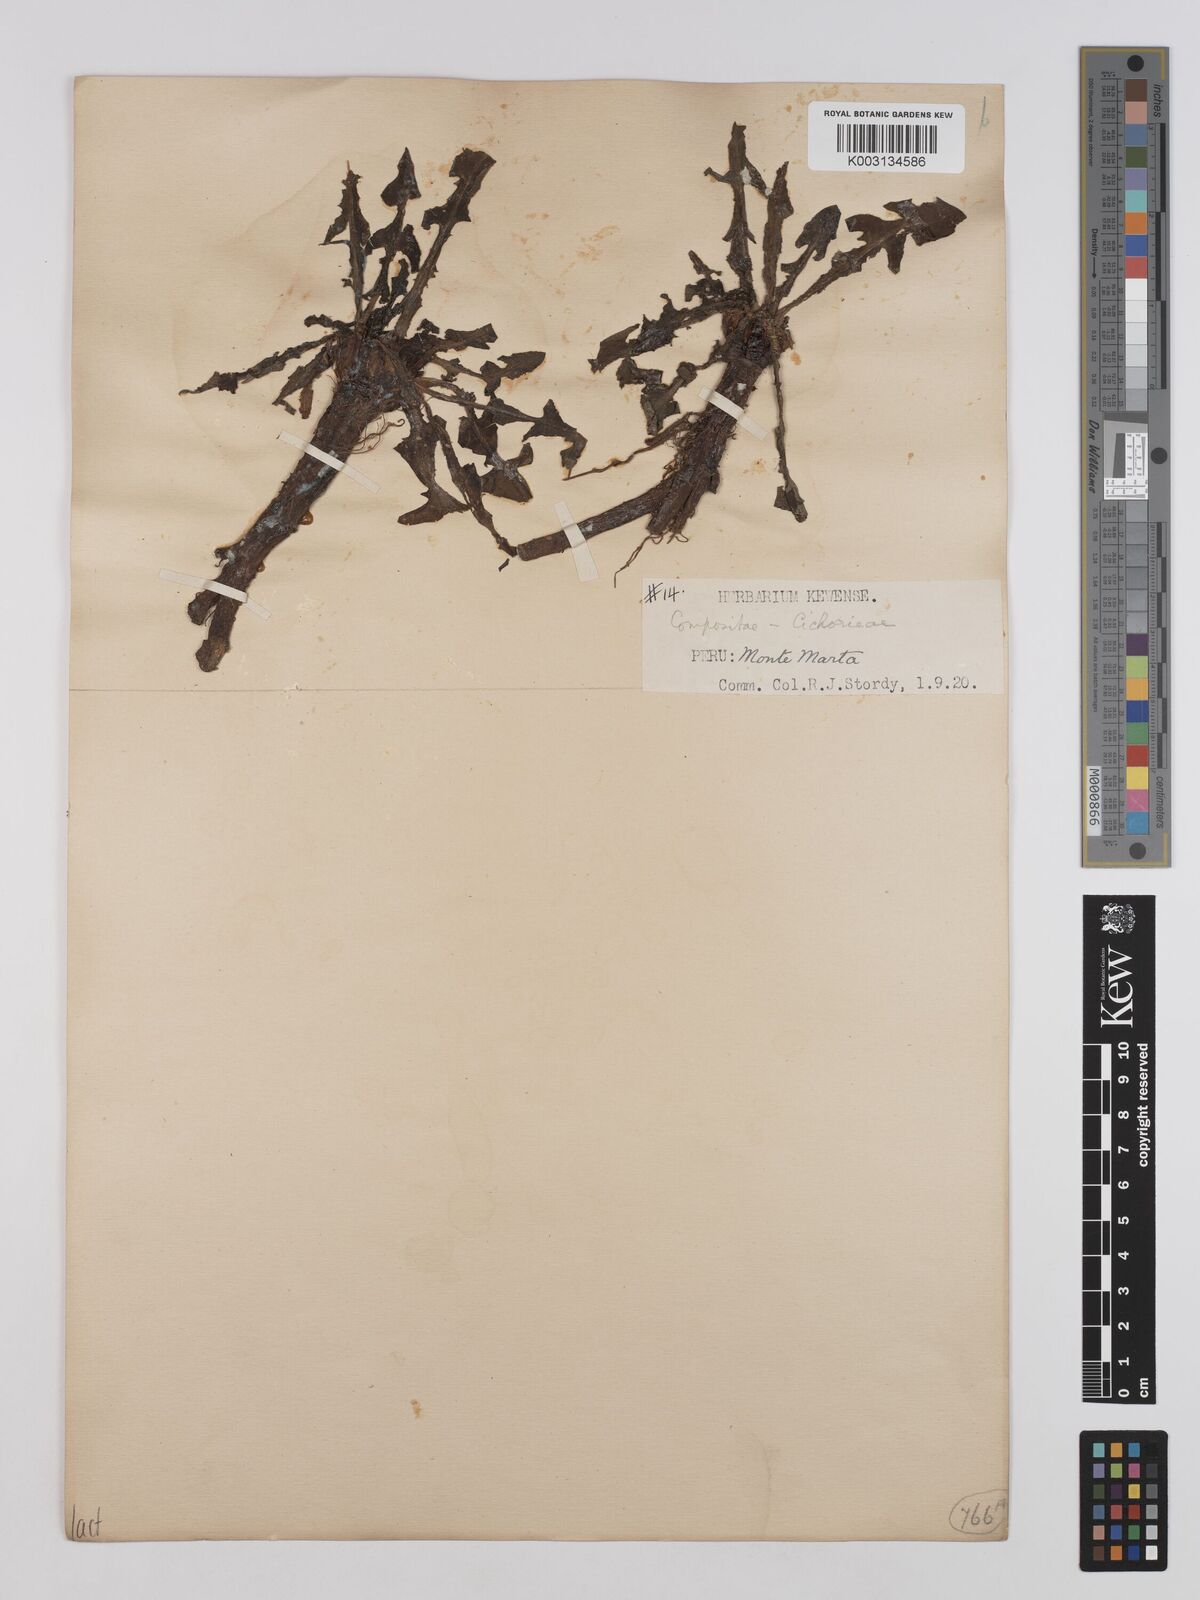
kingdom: Plantae
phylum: Tracheophyta
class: Magnoliopsida
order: Asterales
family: Asteraceae
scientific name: Asteraceae
